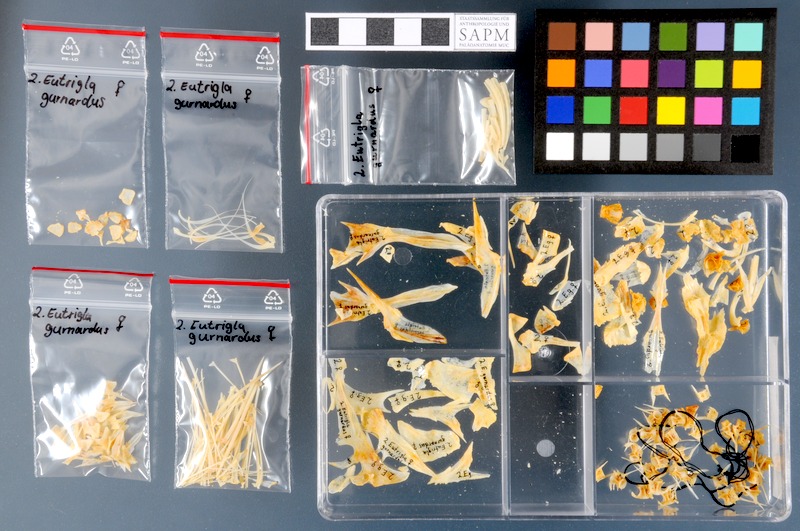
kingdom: Animalia
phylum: Chordata
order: Scorpaeniformes
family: Triglidae
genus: Eutrigla
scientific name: Eutrigla gurnardus
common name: Grey gurnard
